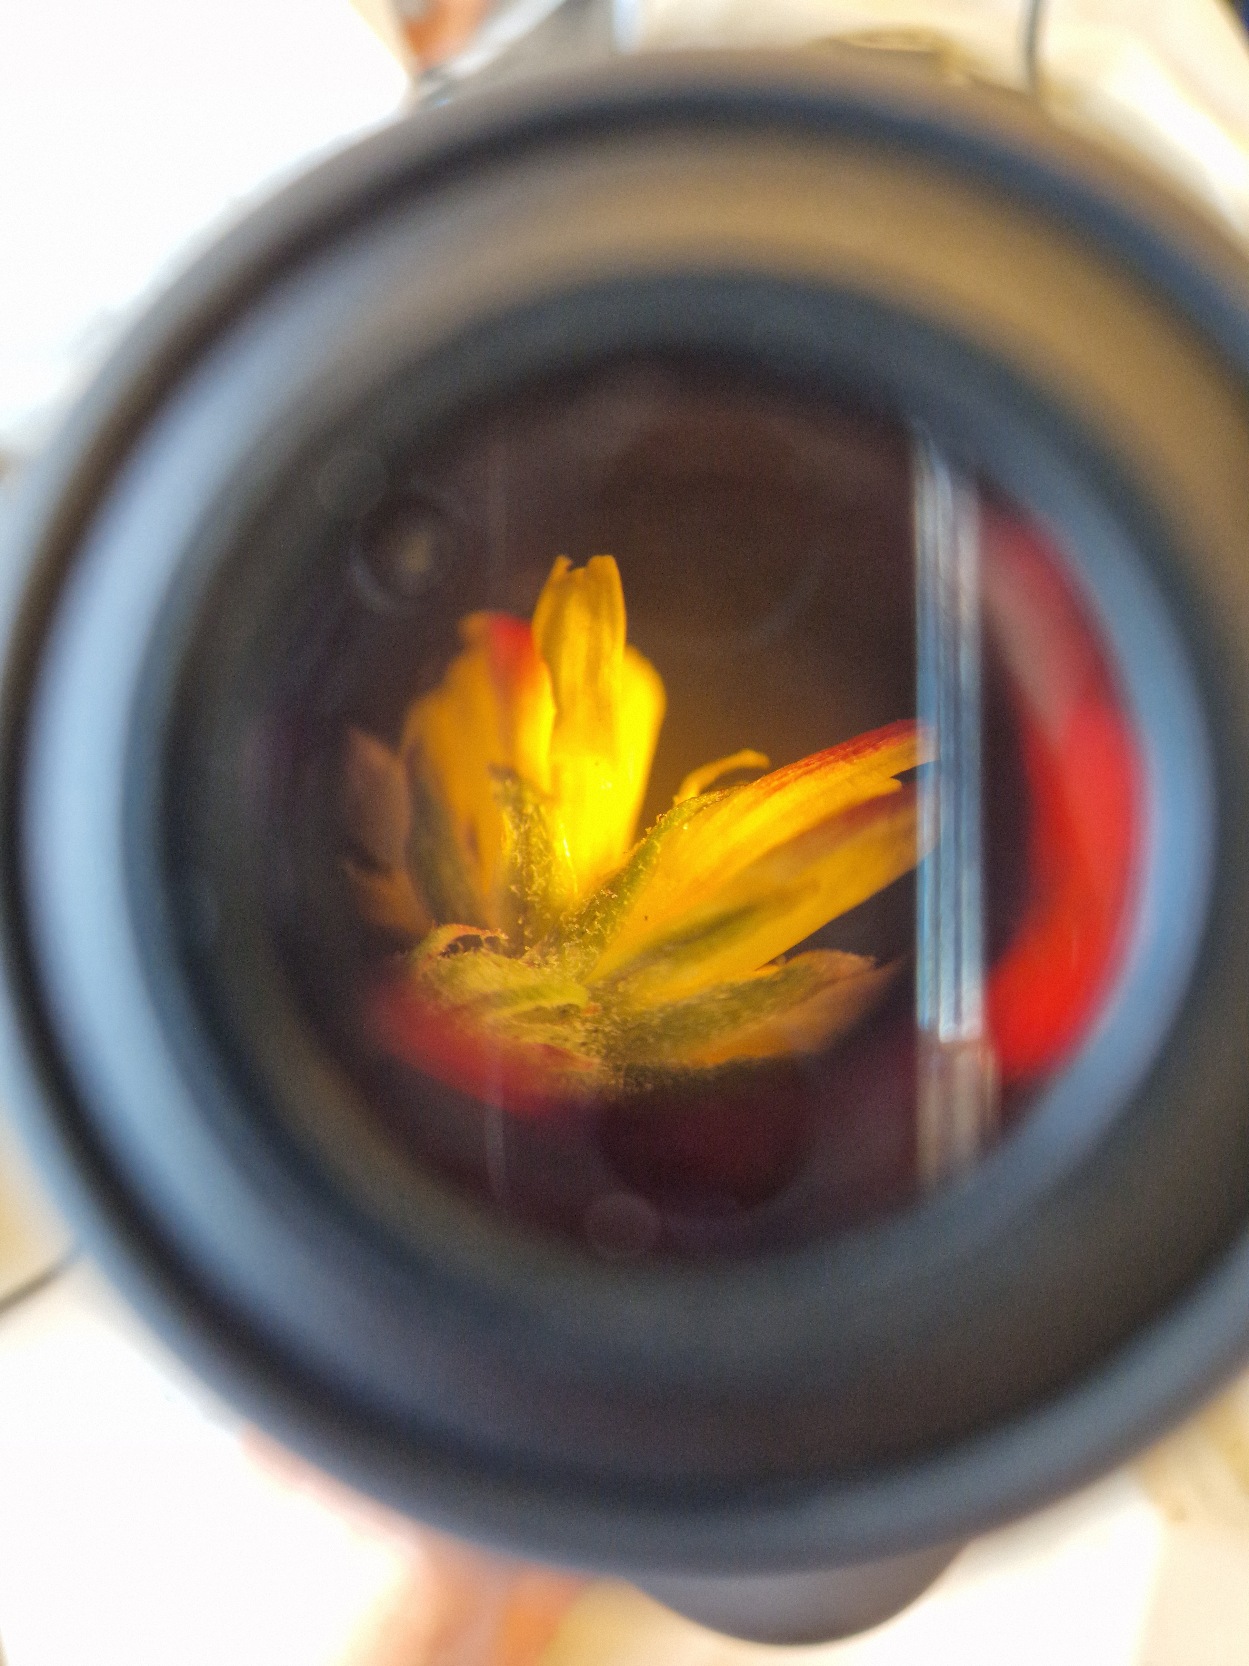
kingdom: Plantae
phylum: Tracheophyta
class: Magnoliopsida
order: Asterales
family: Asteraceae
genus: Crepis
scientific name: Crepis capillaris
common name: Grøn høgeskæg
